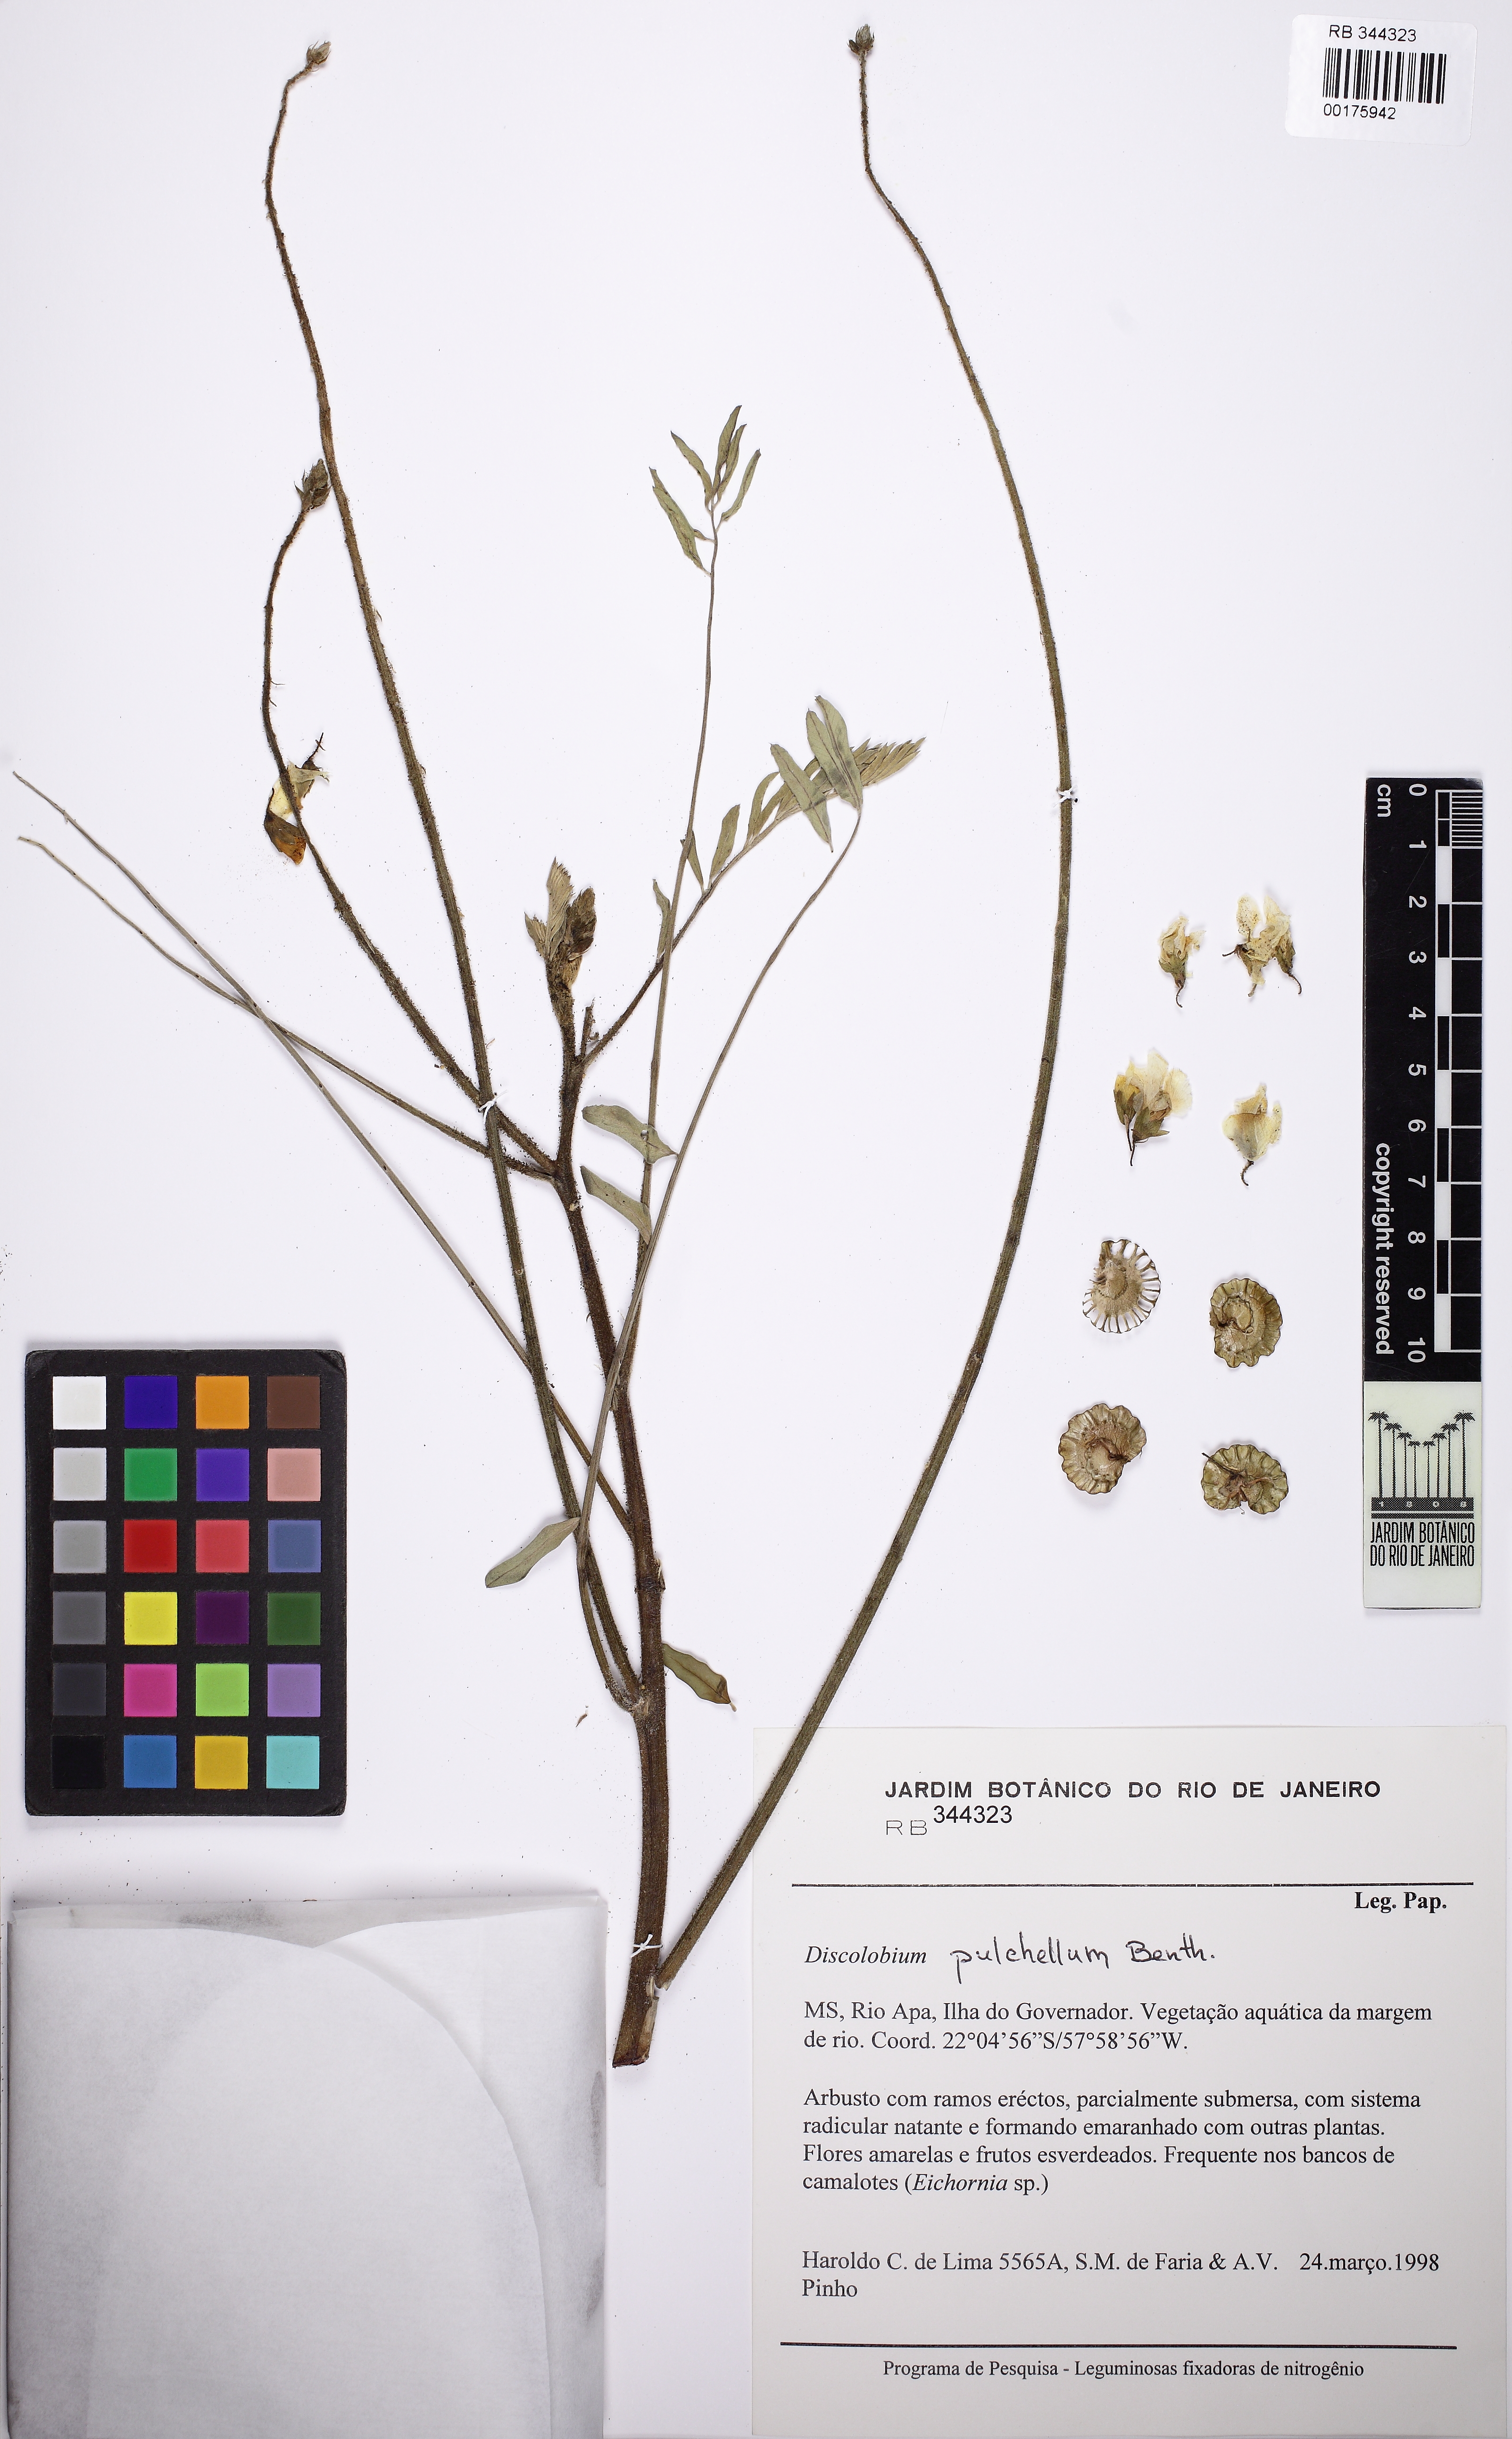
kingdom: Plantae
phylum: Tracheophyta
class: Magnoliopsida
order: Fabales
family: Fabaceae
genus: Discolobium
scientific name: Discolobium pulchellum
